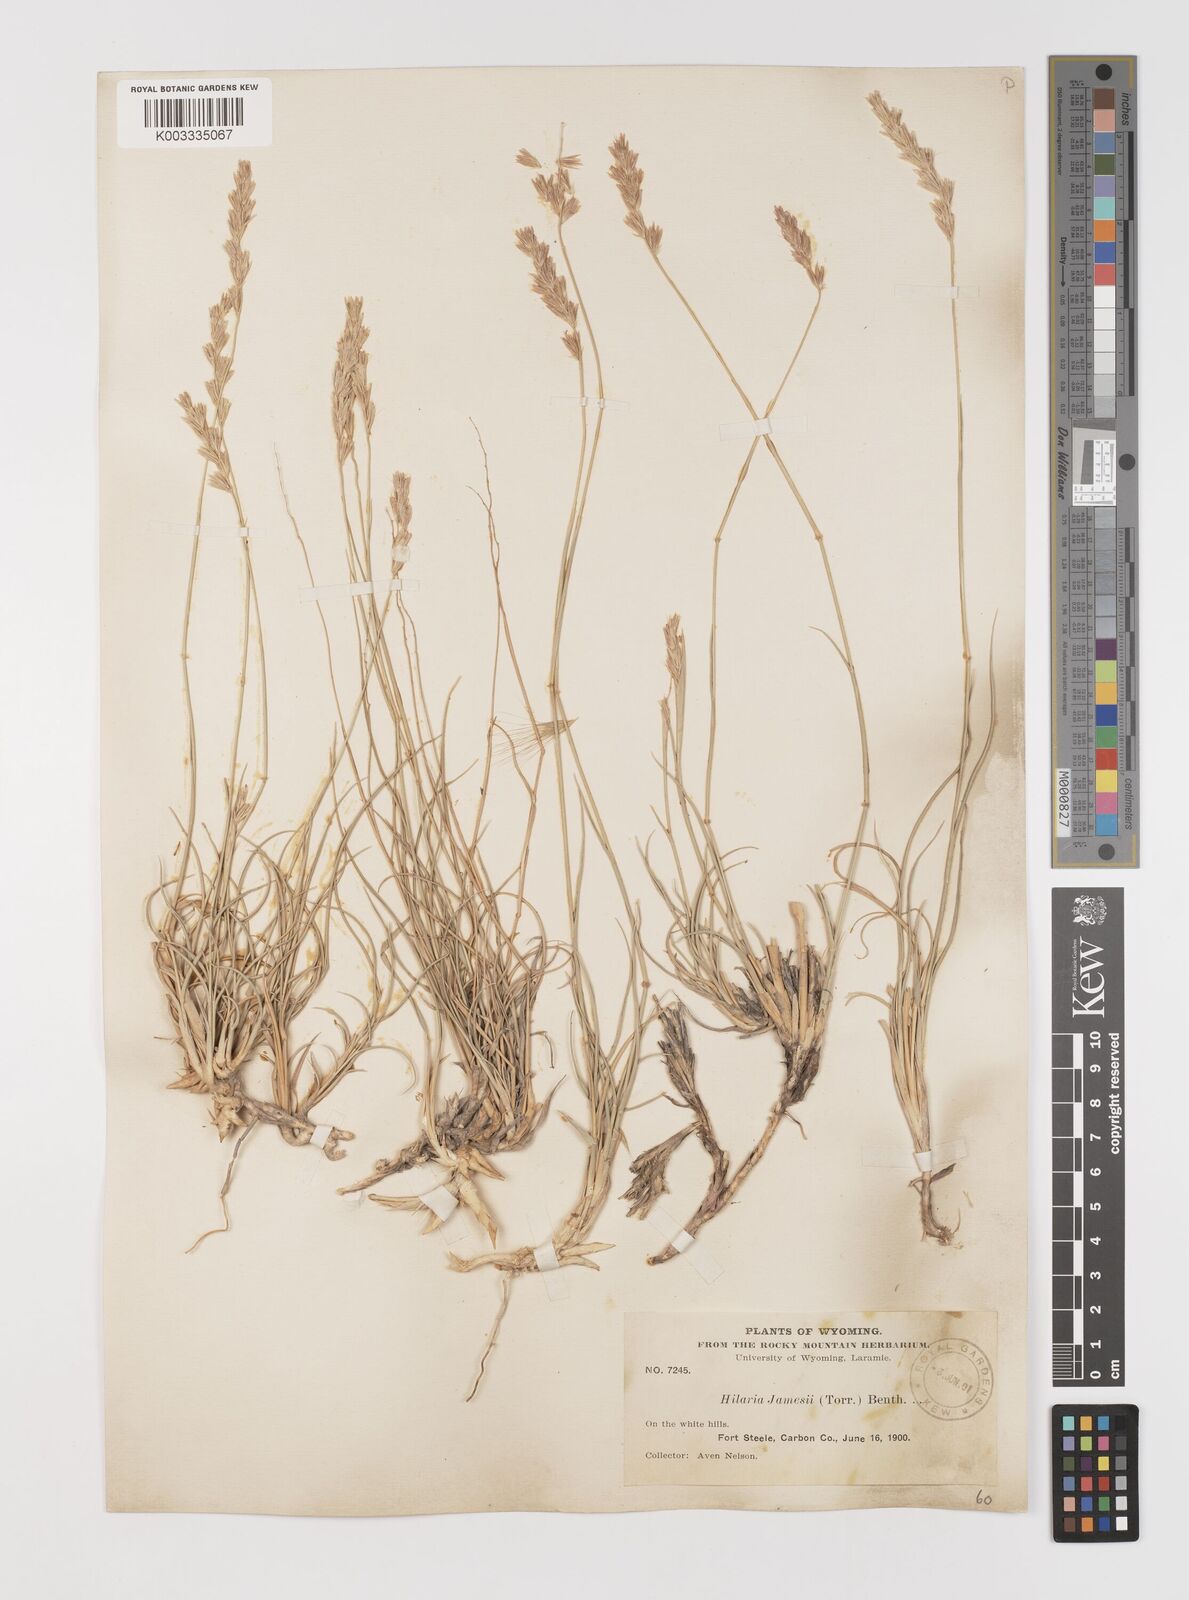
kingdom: Plantae
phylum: Tracheophyta
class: Liliopsida
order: Poales
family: Poaceae
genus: Hilaria
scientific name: Hilaria jamesii
